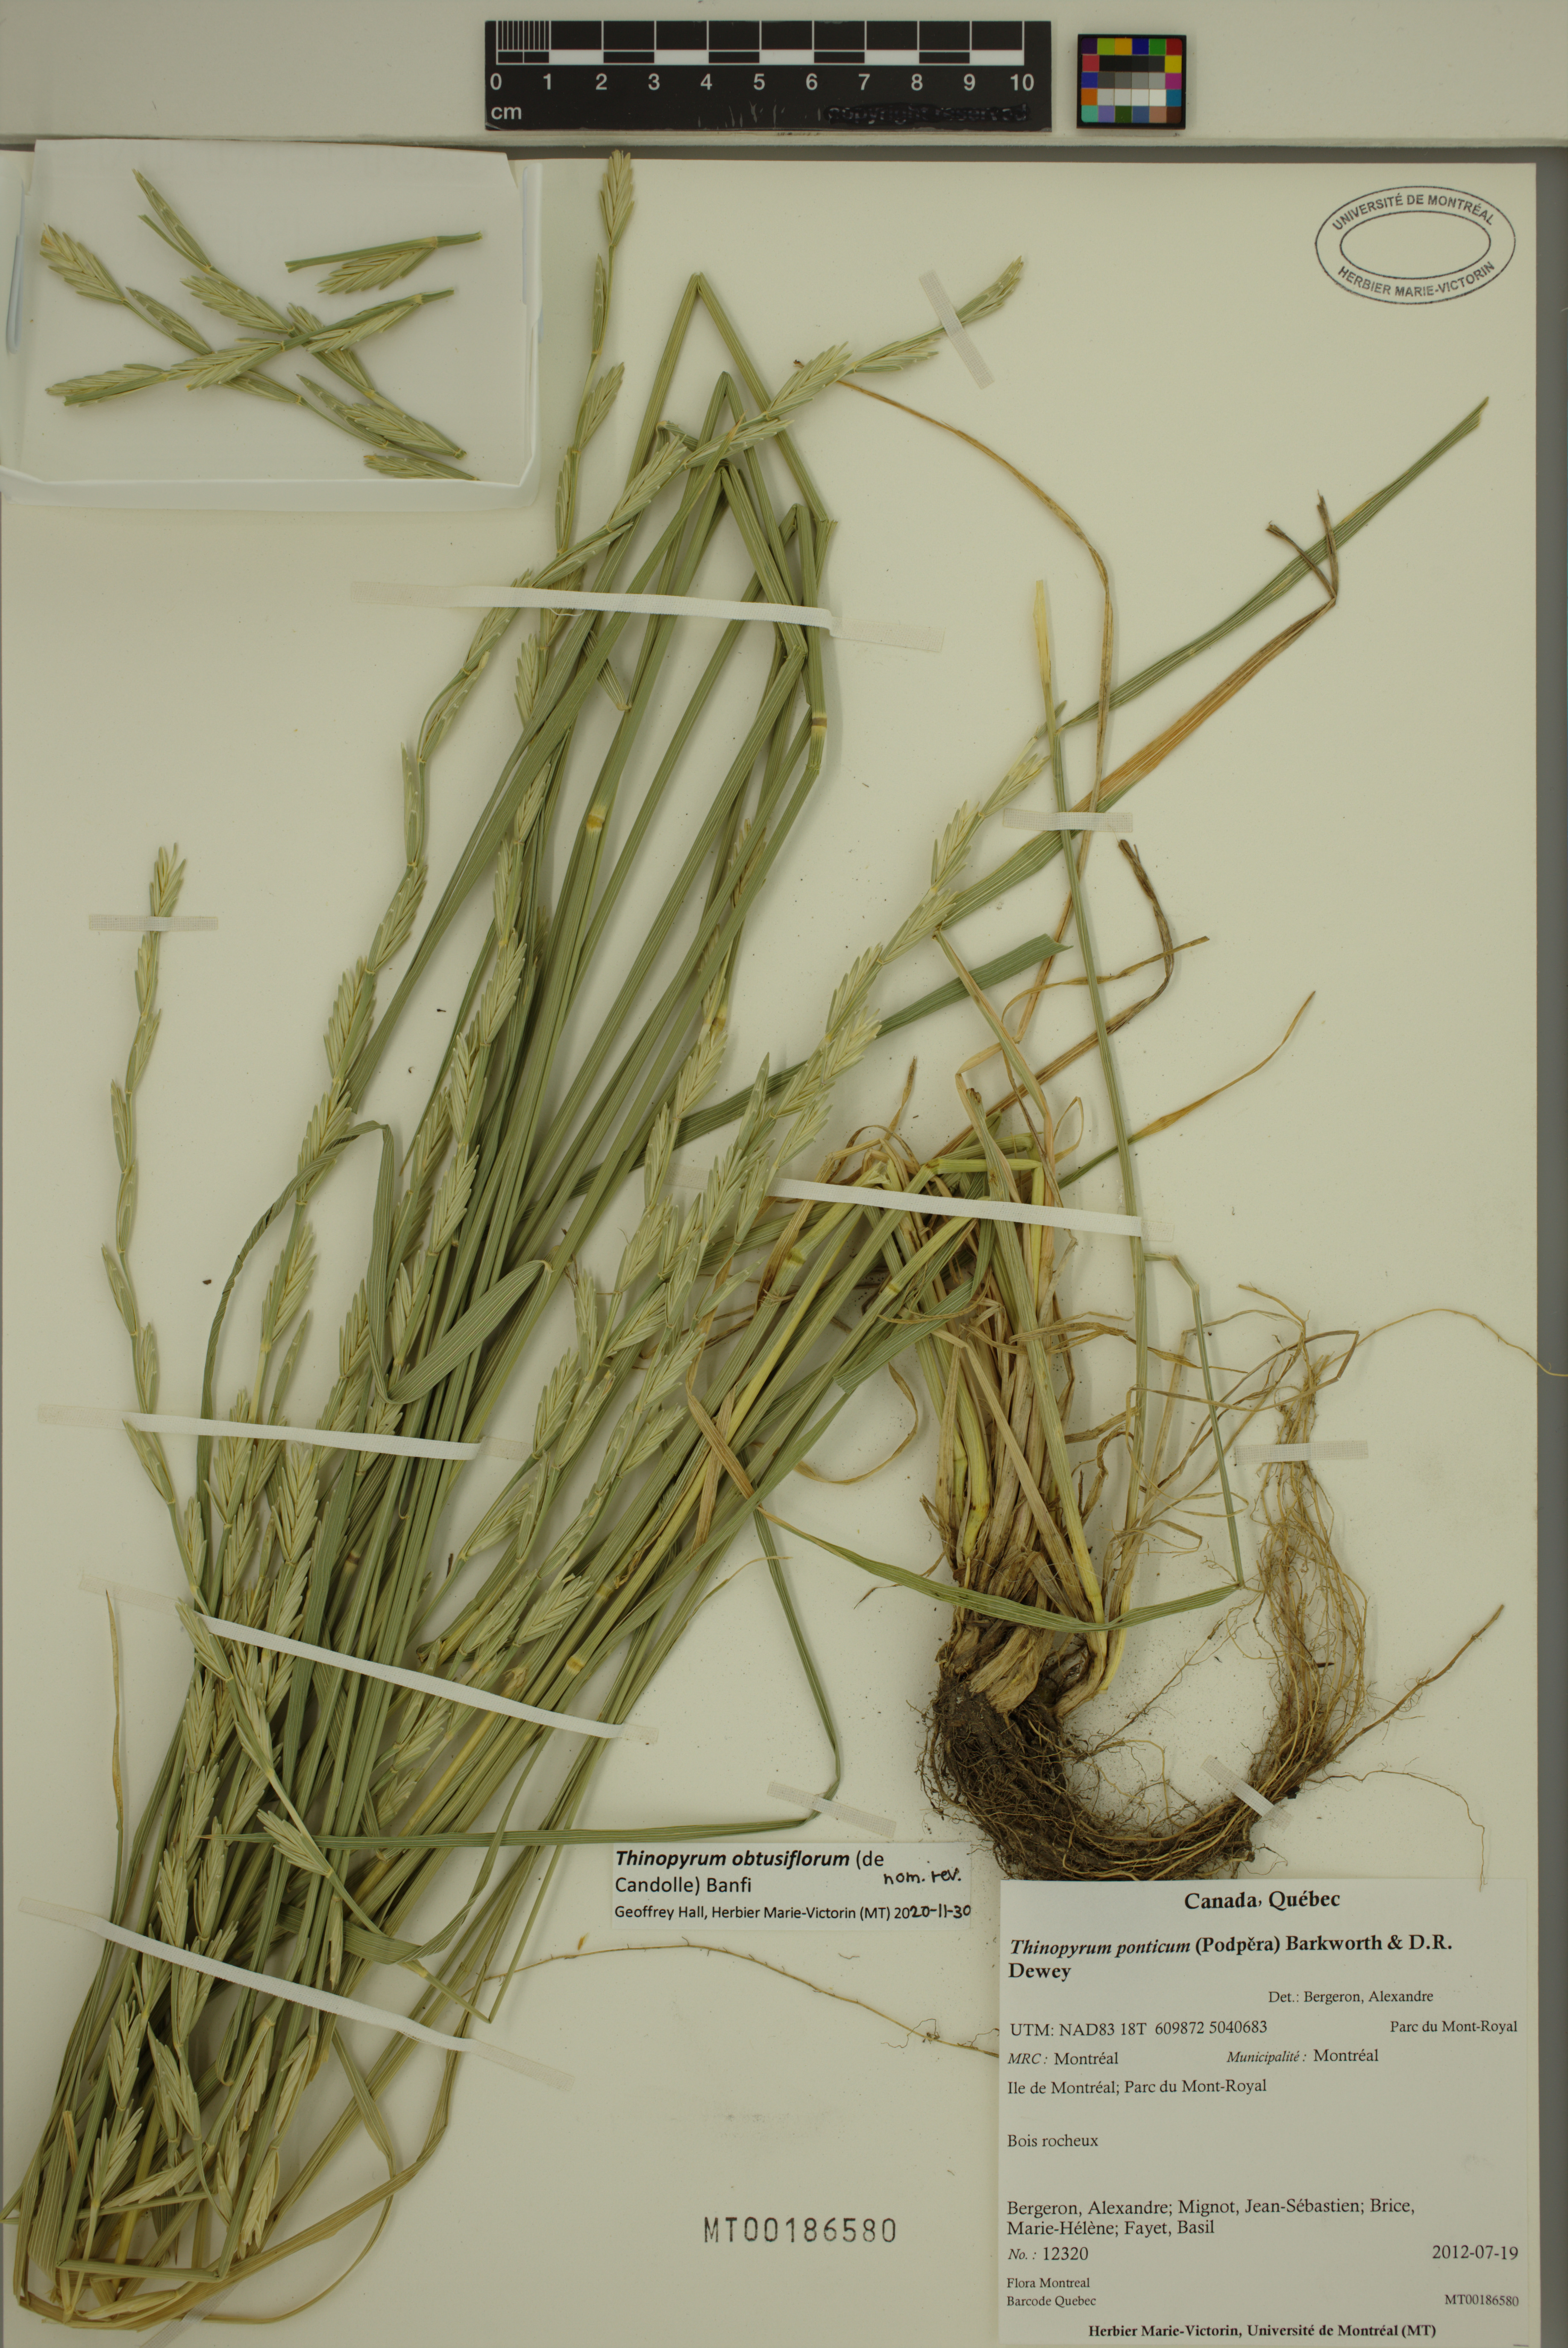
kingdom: Plantae
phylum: Tracheophyta
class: Liliopsida
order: Poales
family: Poaceae
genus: Thinopyrum
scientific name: Thinopyrum obtusiflorum
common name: Eurasian quackgrass
